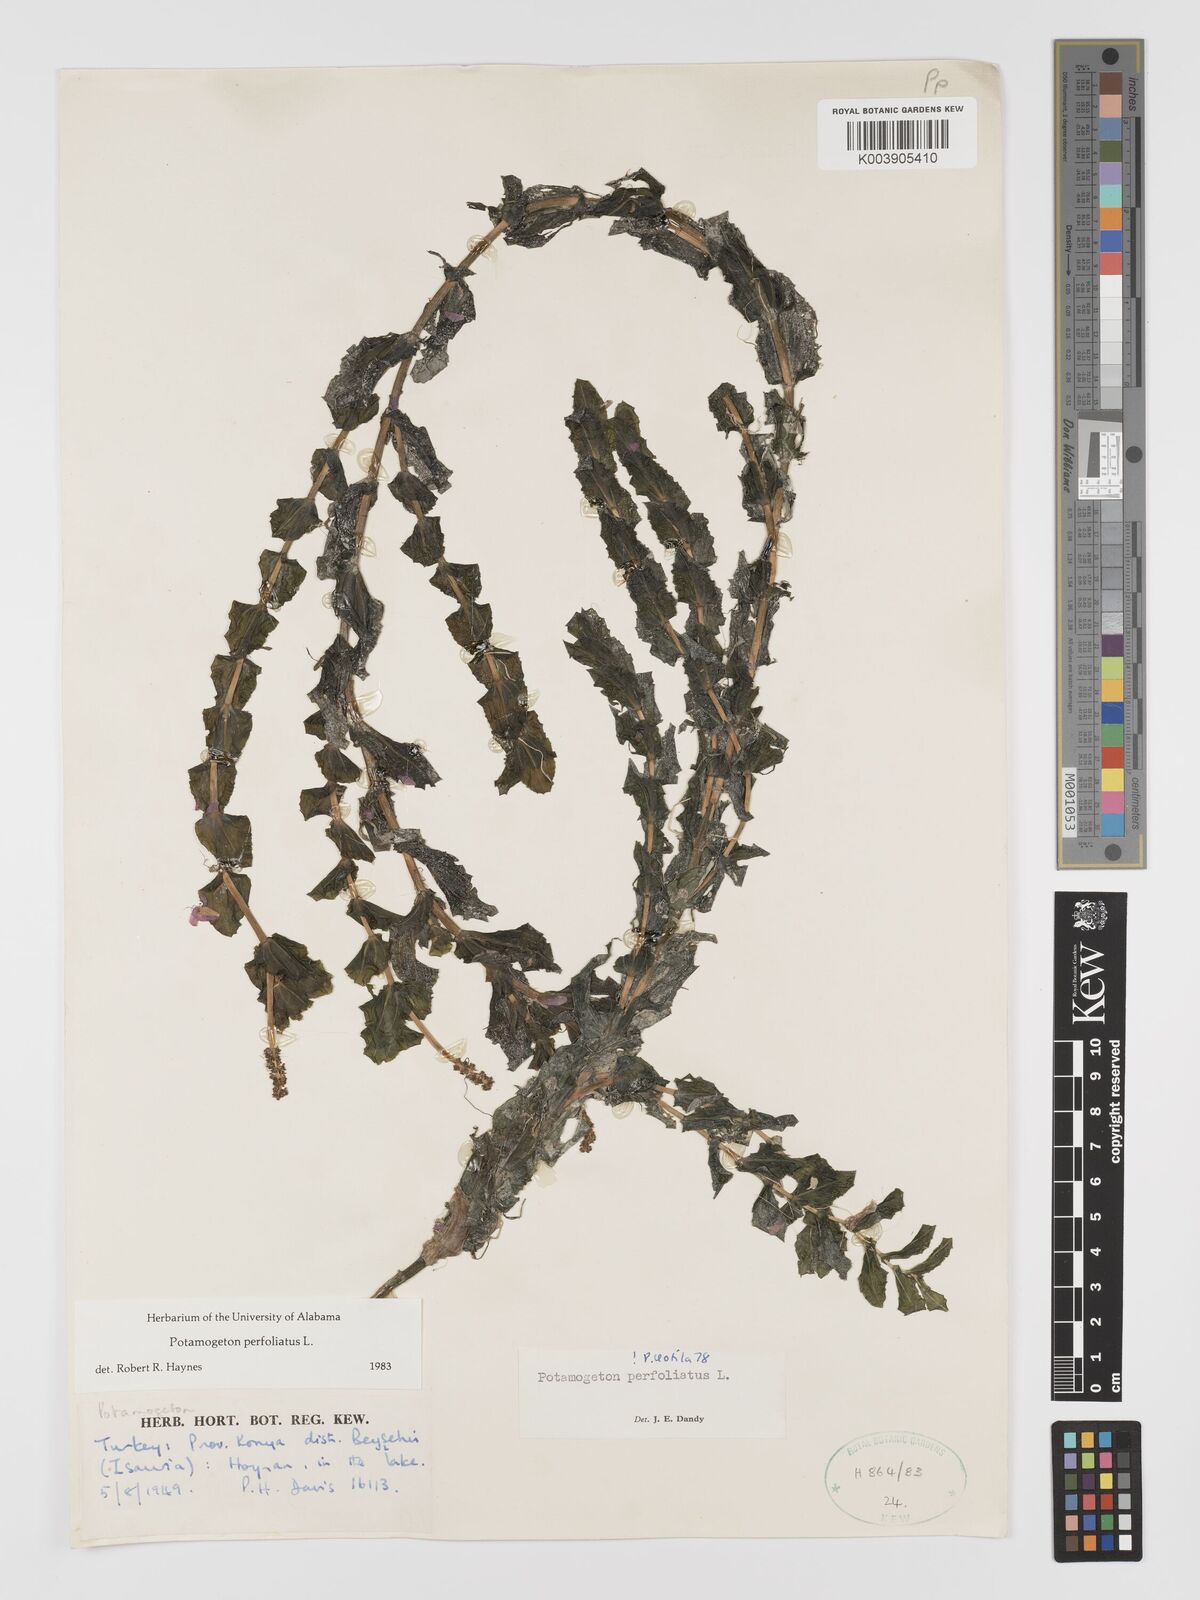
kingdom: Plantae
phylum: Tracheophyta
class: Liliopsida
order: Alismatales
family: Potamogetonaceae
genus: Potamogeton
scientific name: Potamogeton perfoliatus
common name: Perfoliate pondweed
